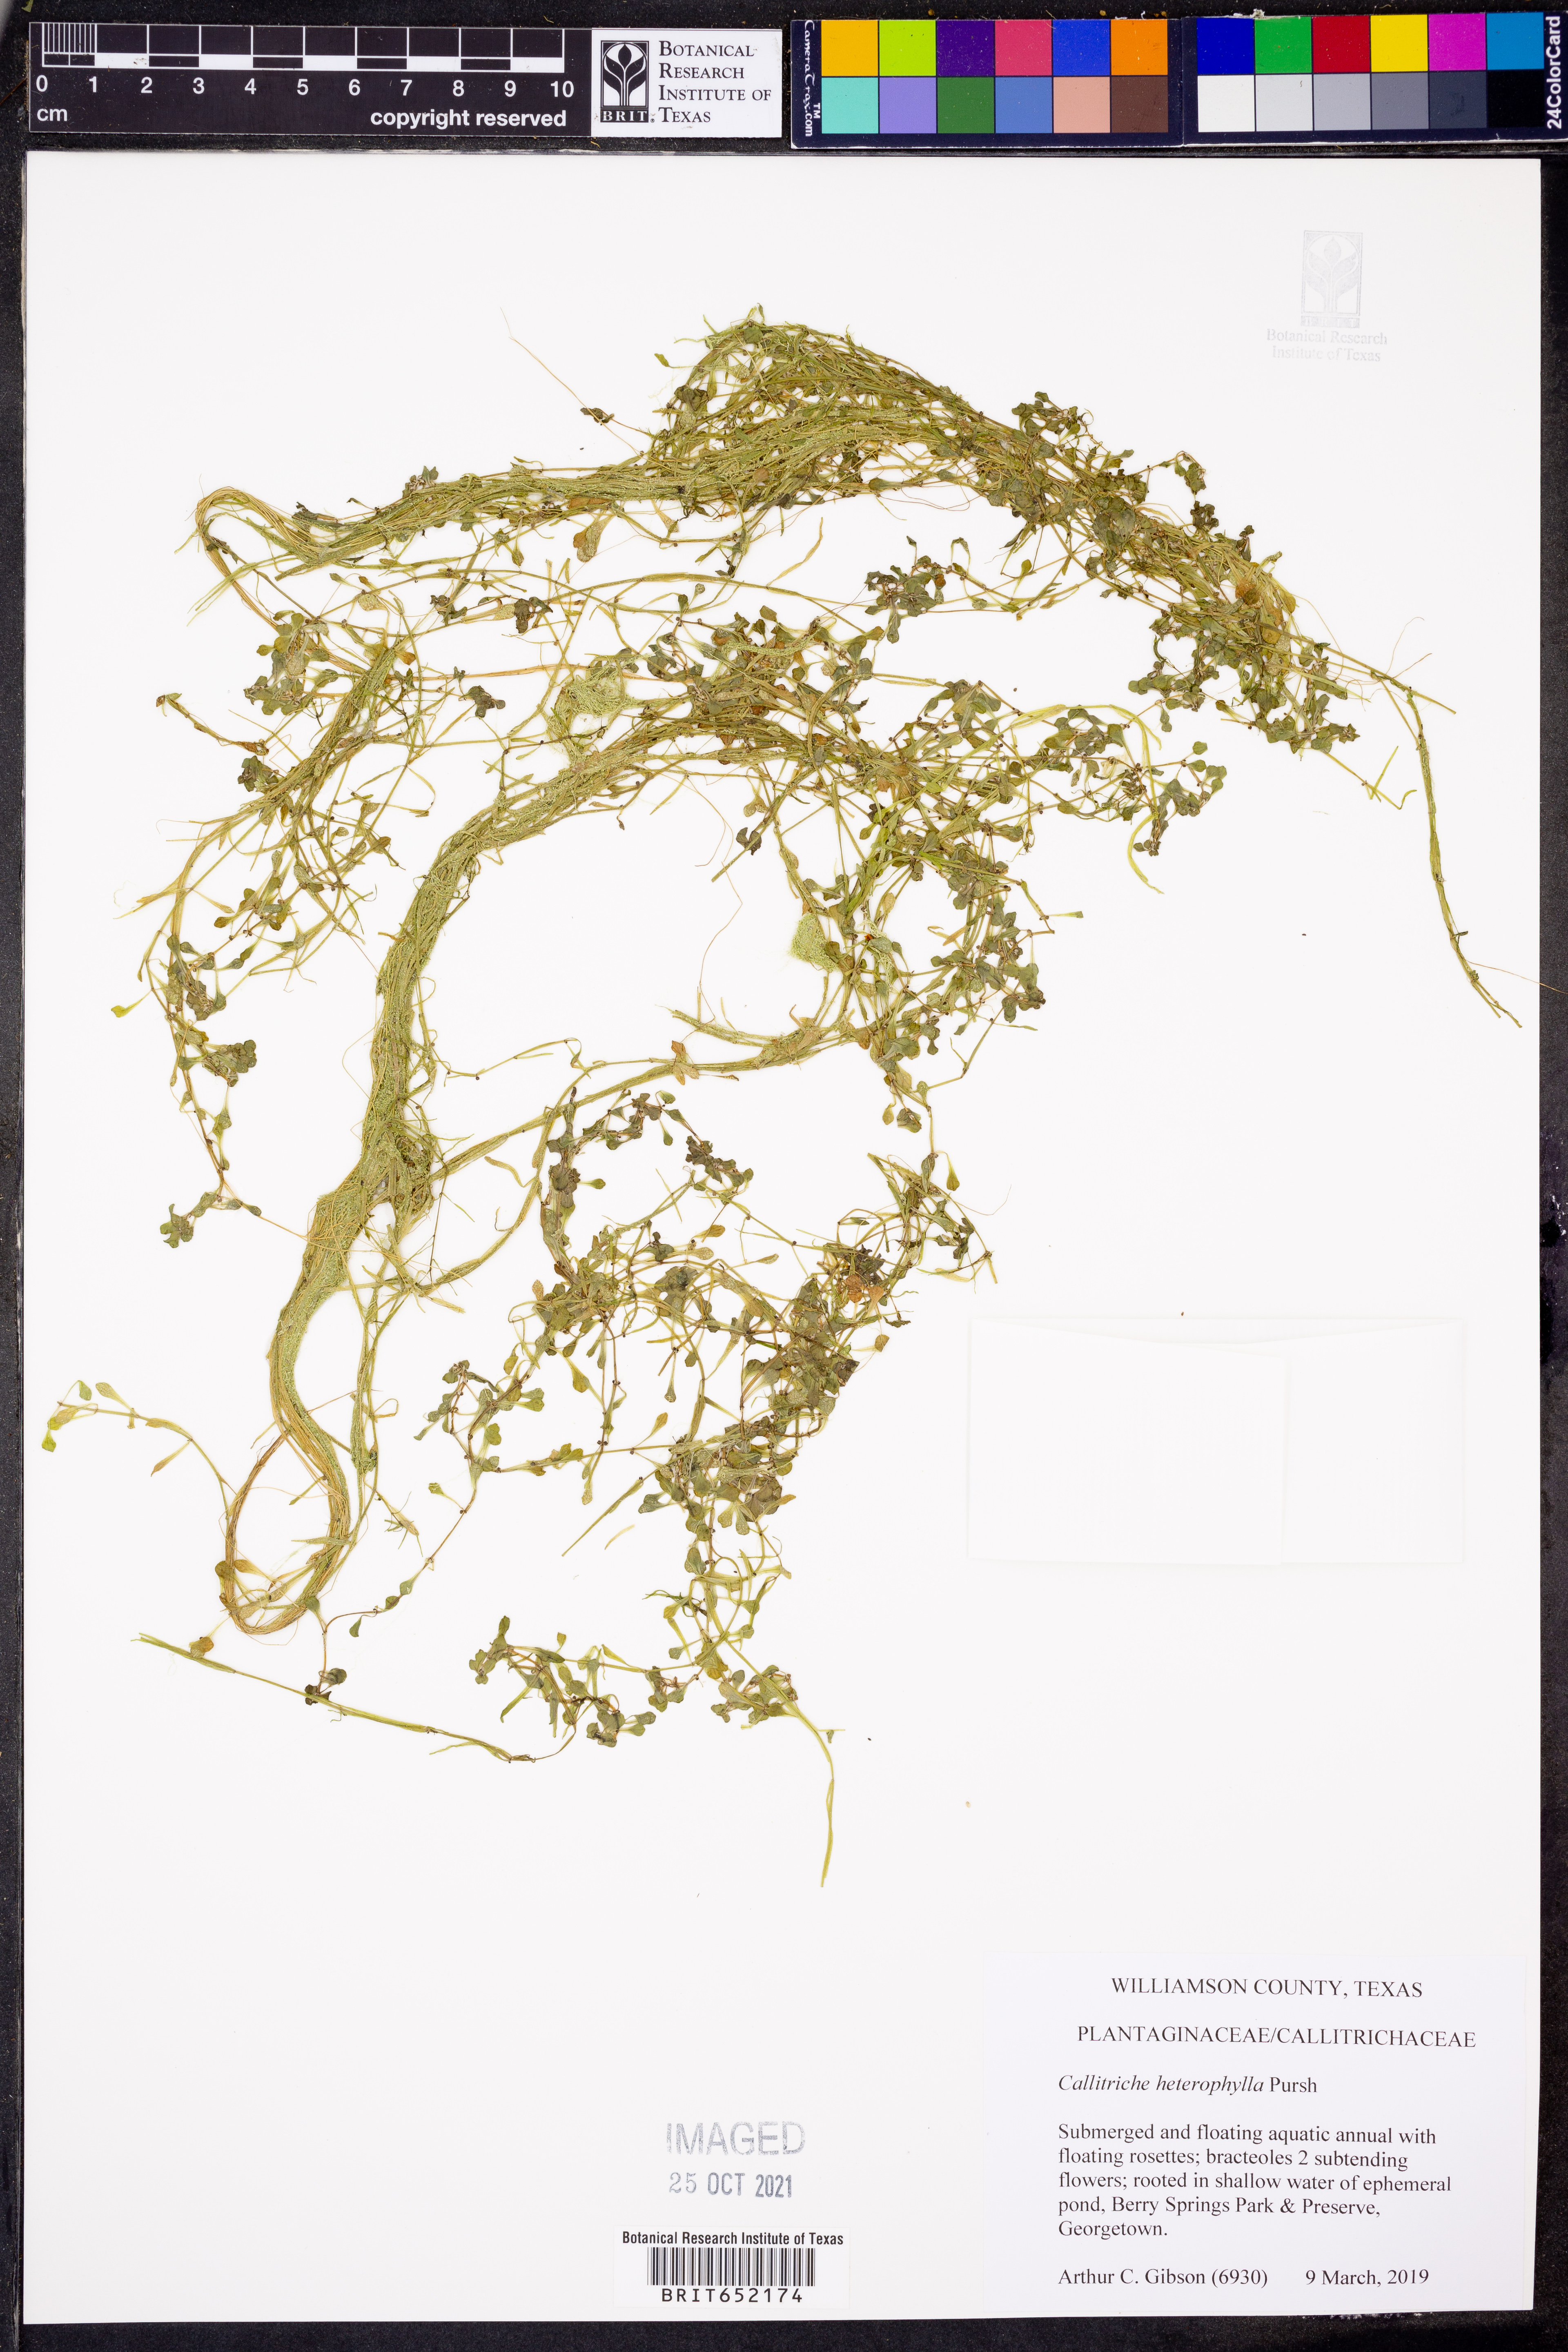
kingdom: Plantae
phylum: Tracheophyta
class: Magnoliopsida
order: Lamiales
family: Plantaginaceae
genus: Callitriche
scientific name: Callitriche heterophylla
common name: Two-headed water-starwort
